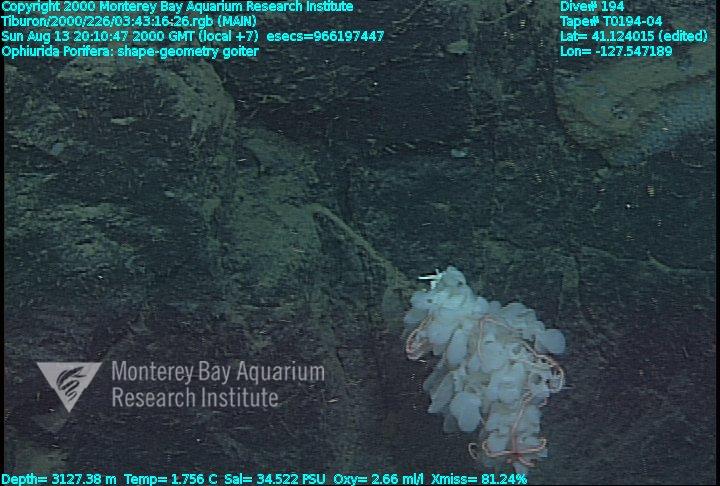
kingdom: Animalia
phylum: Porifera
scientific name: Porifera
